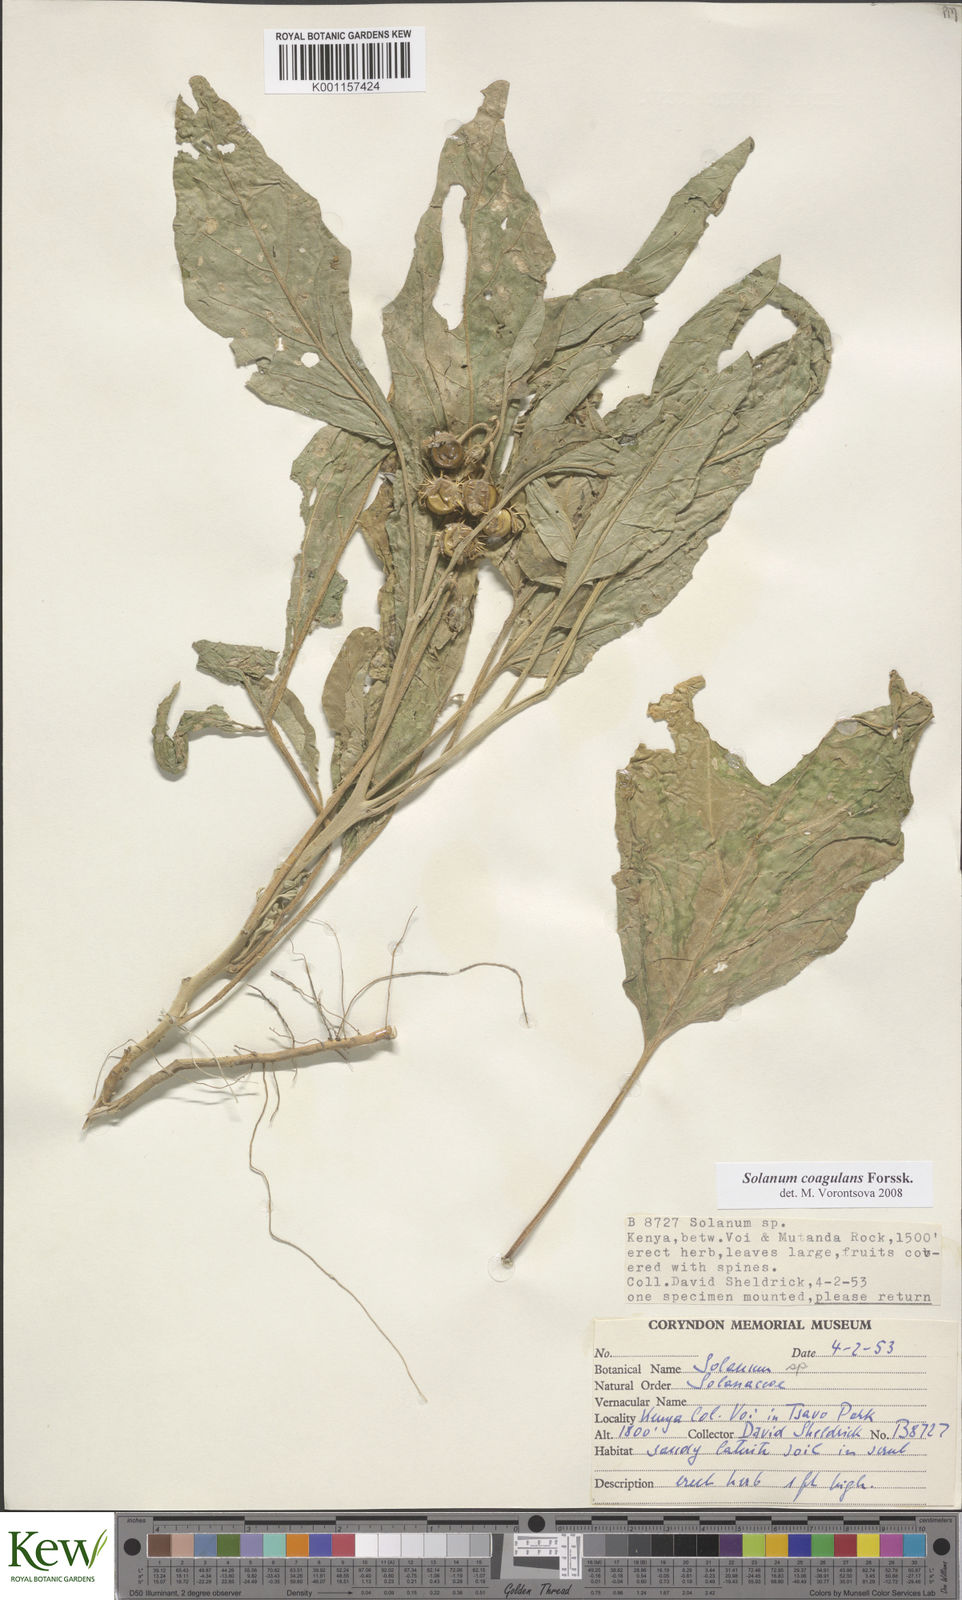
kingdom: Plantae
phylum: Tracheophyta
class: Magnoliopsida
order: Solanales
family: Solanaceae
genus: Solanum
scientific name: Solanum coagulans
